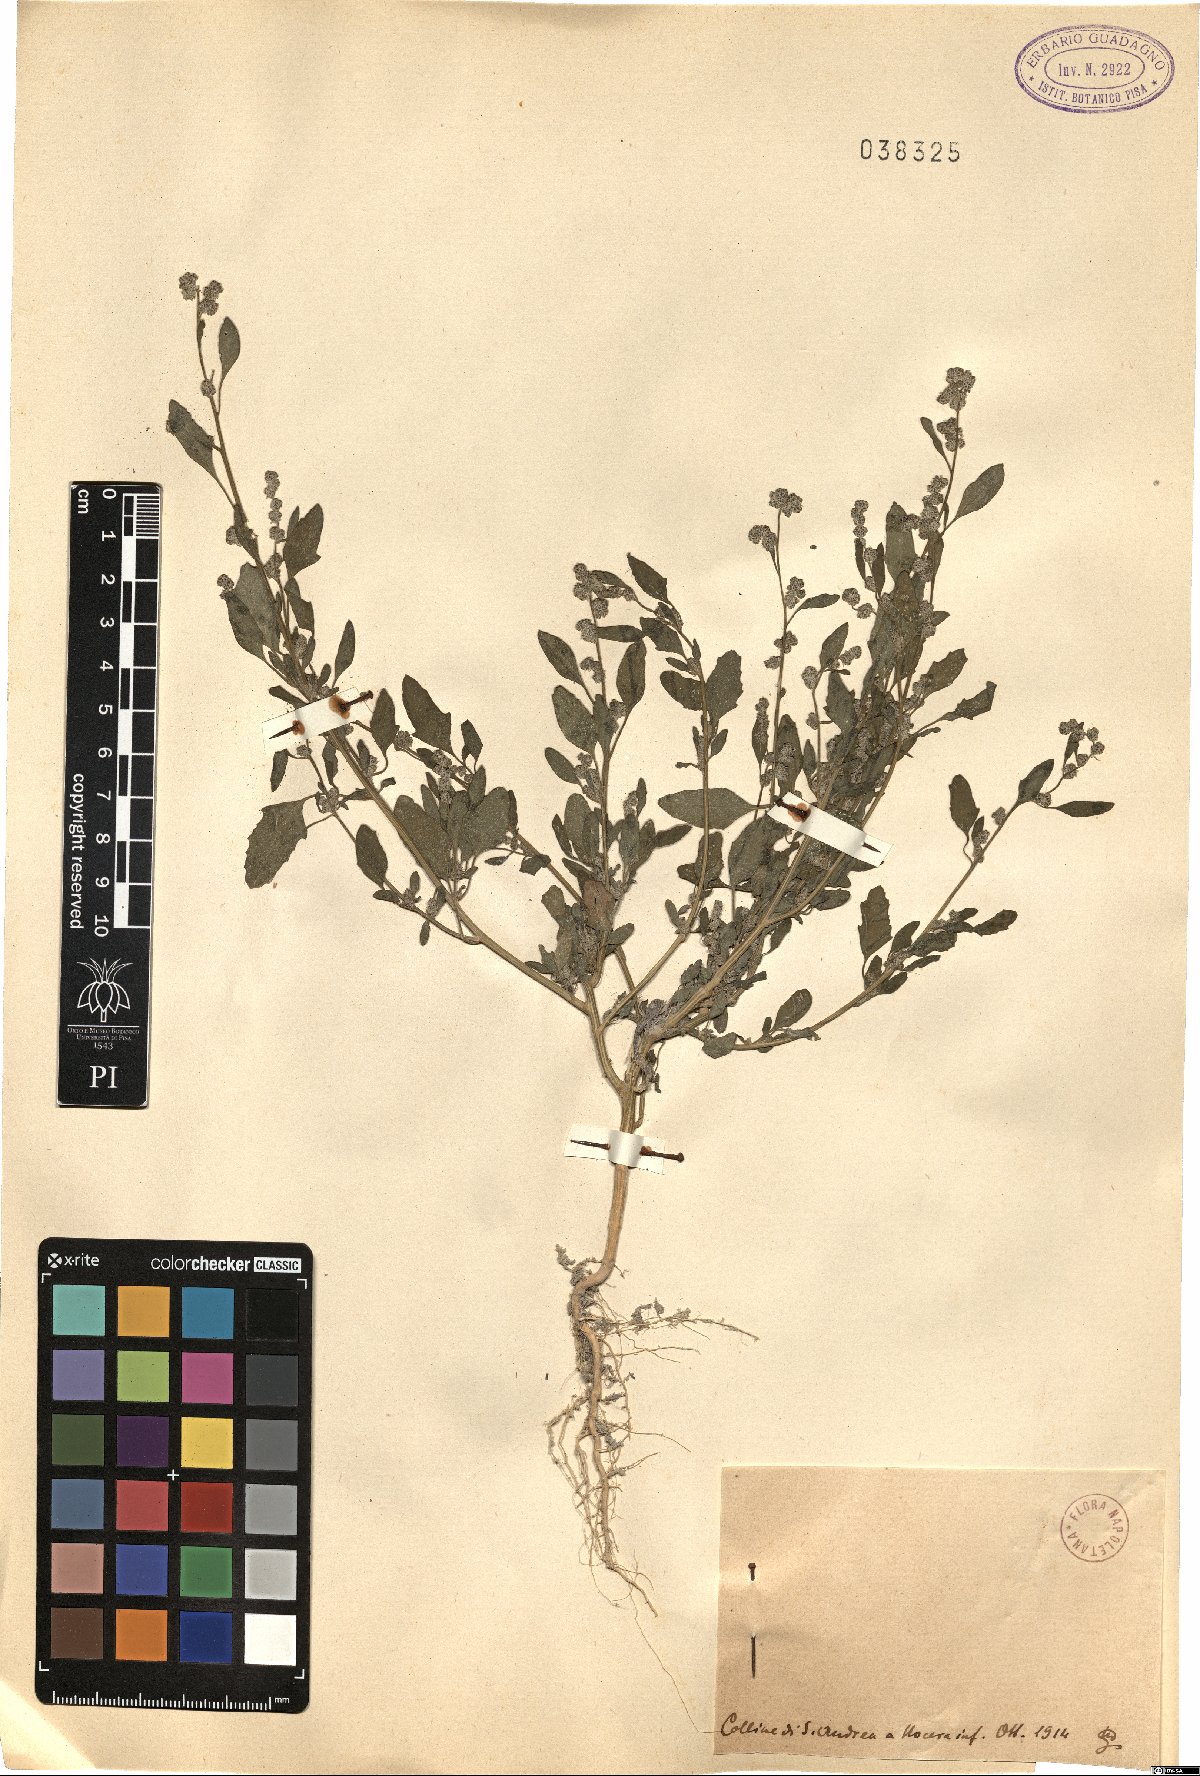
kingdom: Plantae
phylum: Tracheophyta
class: Magnoliopsida
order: Caryophyllales
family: Amaranthaceae
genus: Chenopodium
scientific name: Chenopodium
